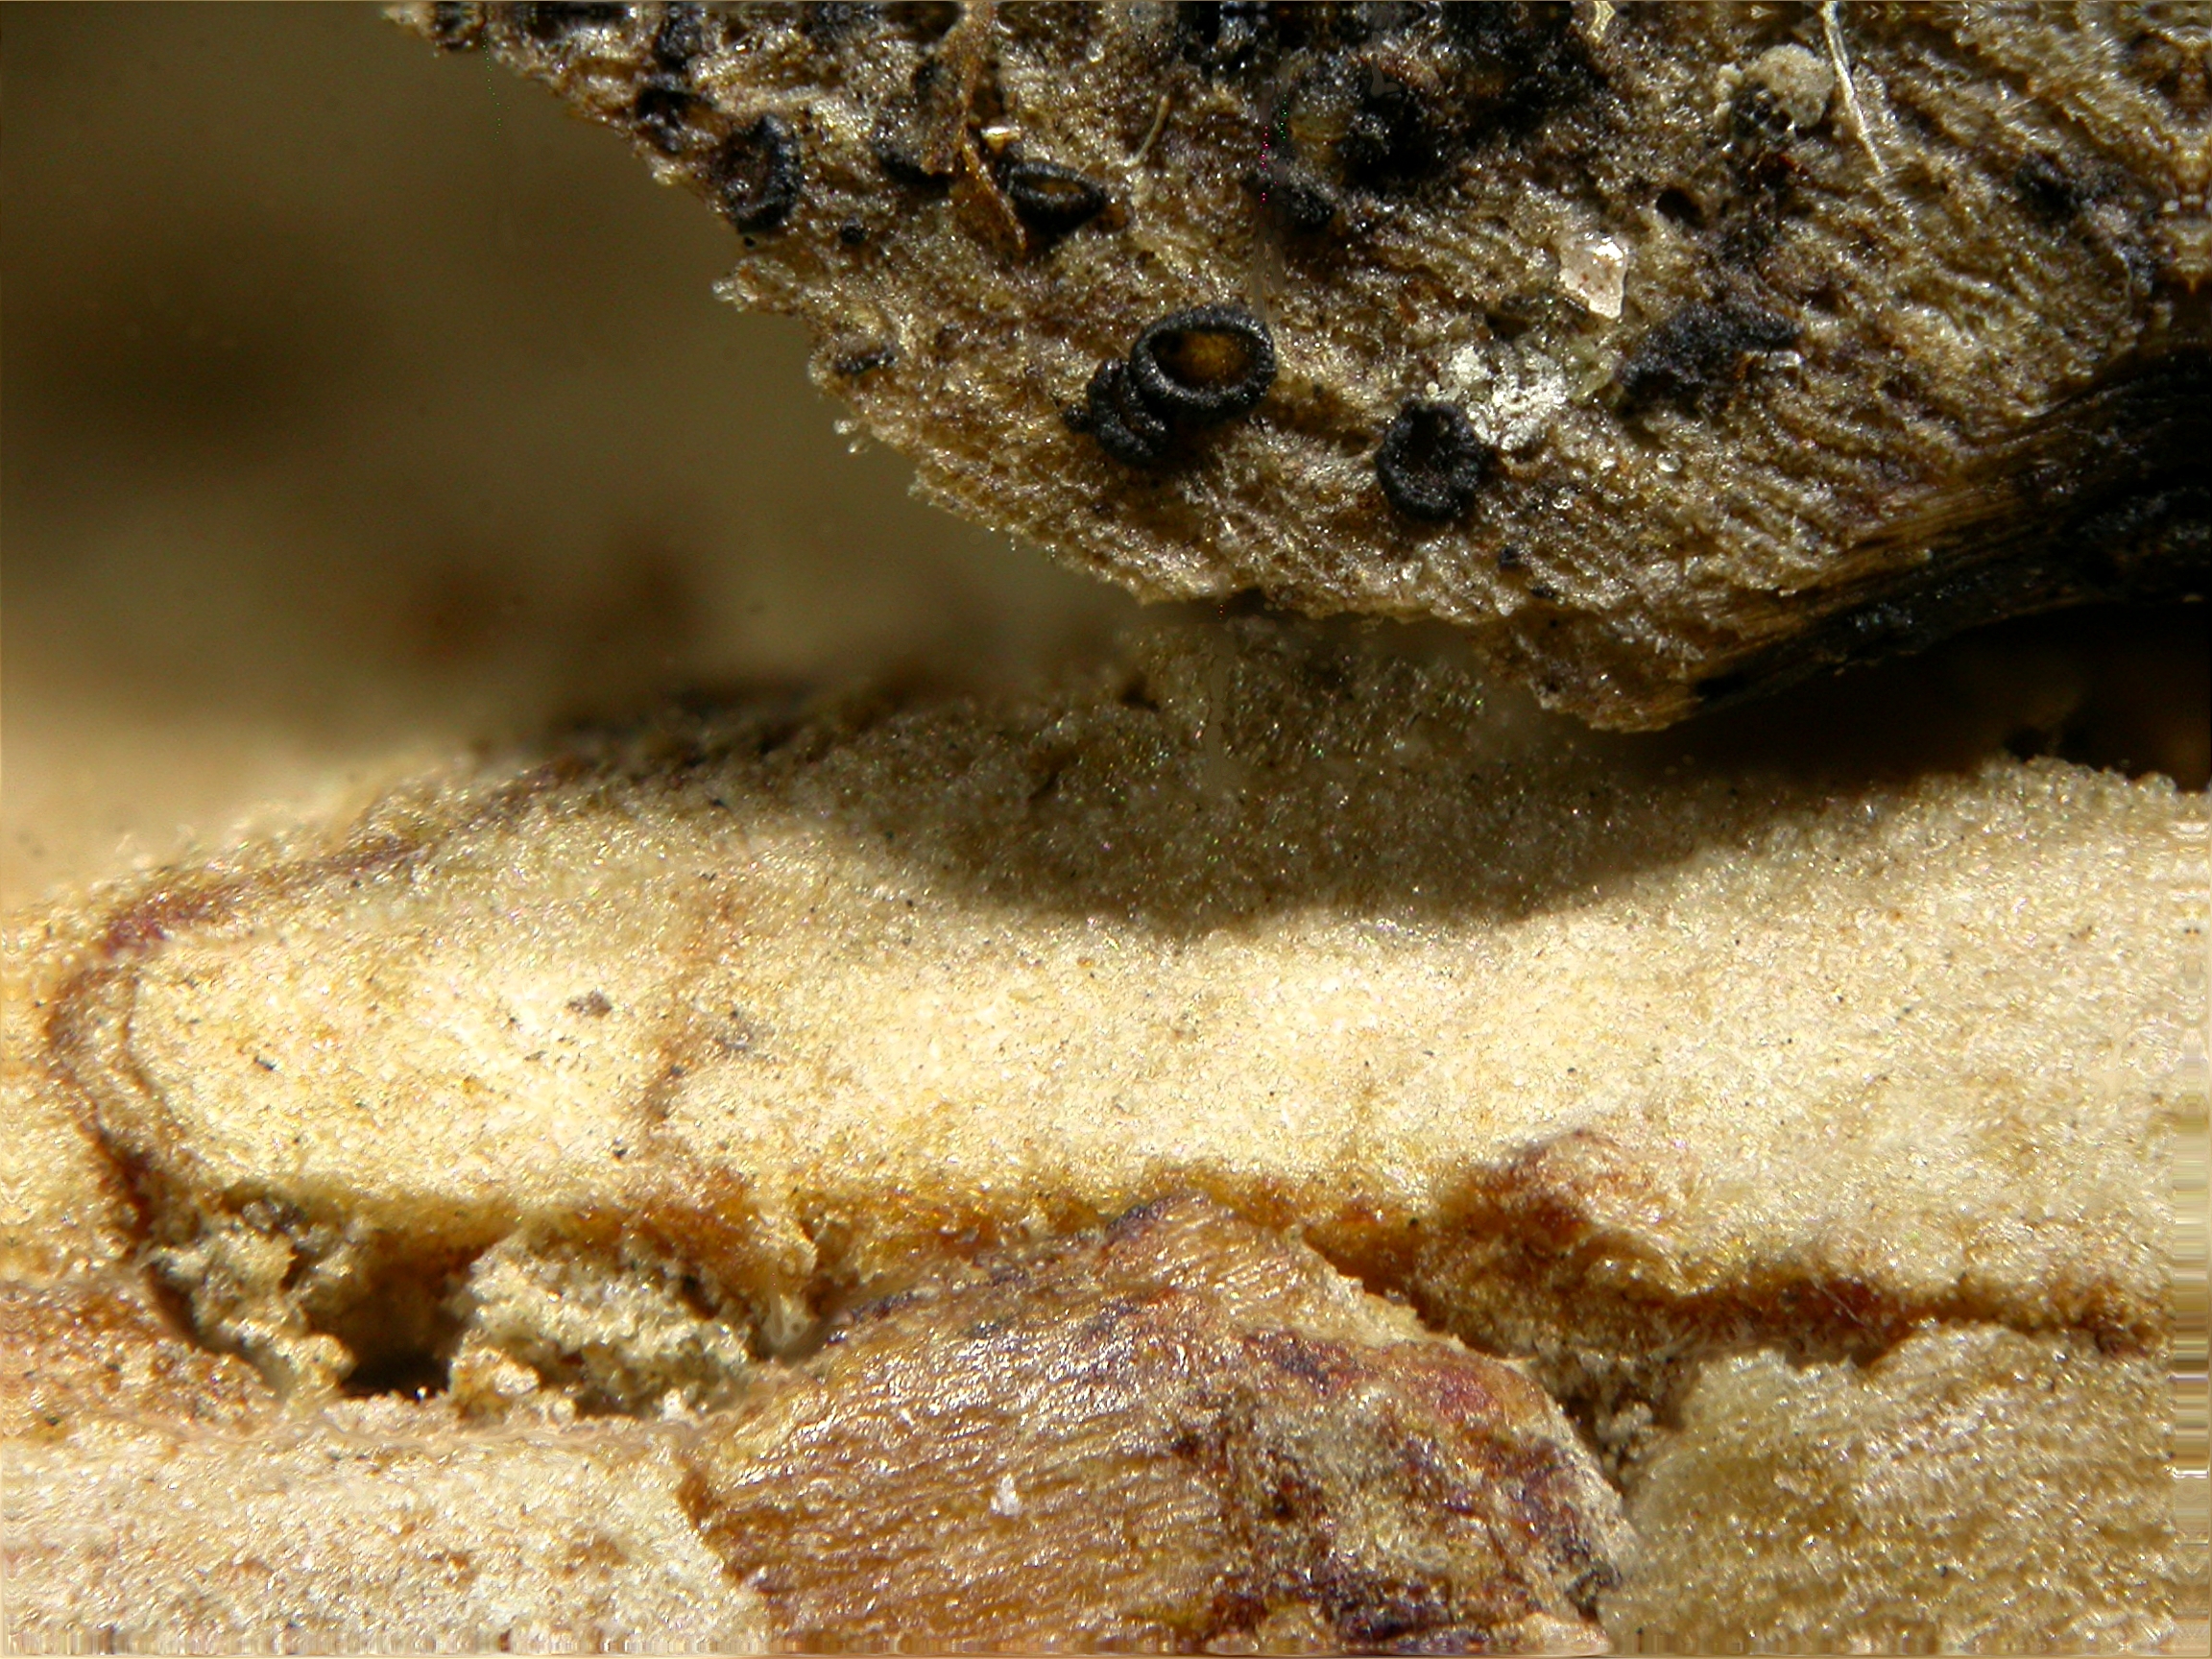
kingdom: Fungi
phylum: Ascomycota
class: Leotiomycetes
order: Helotiales
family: Mollisiaceae
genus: Mollisia
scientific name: Mollisia cinerea
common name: Common grey disco
